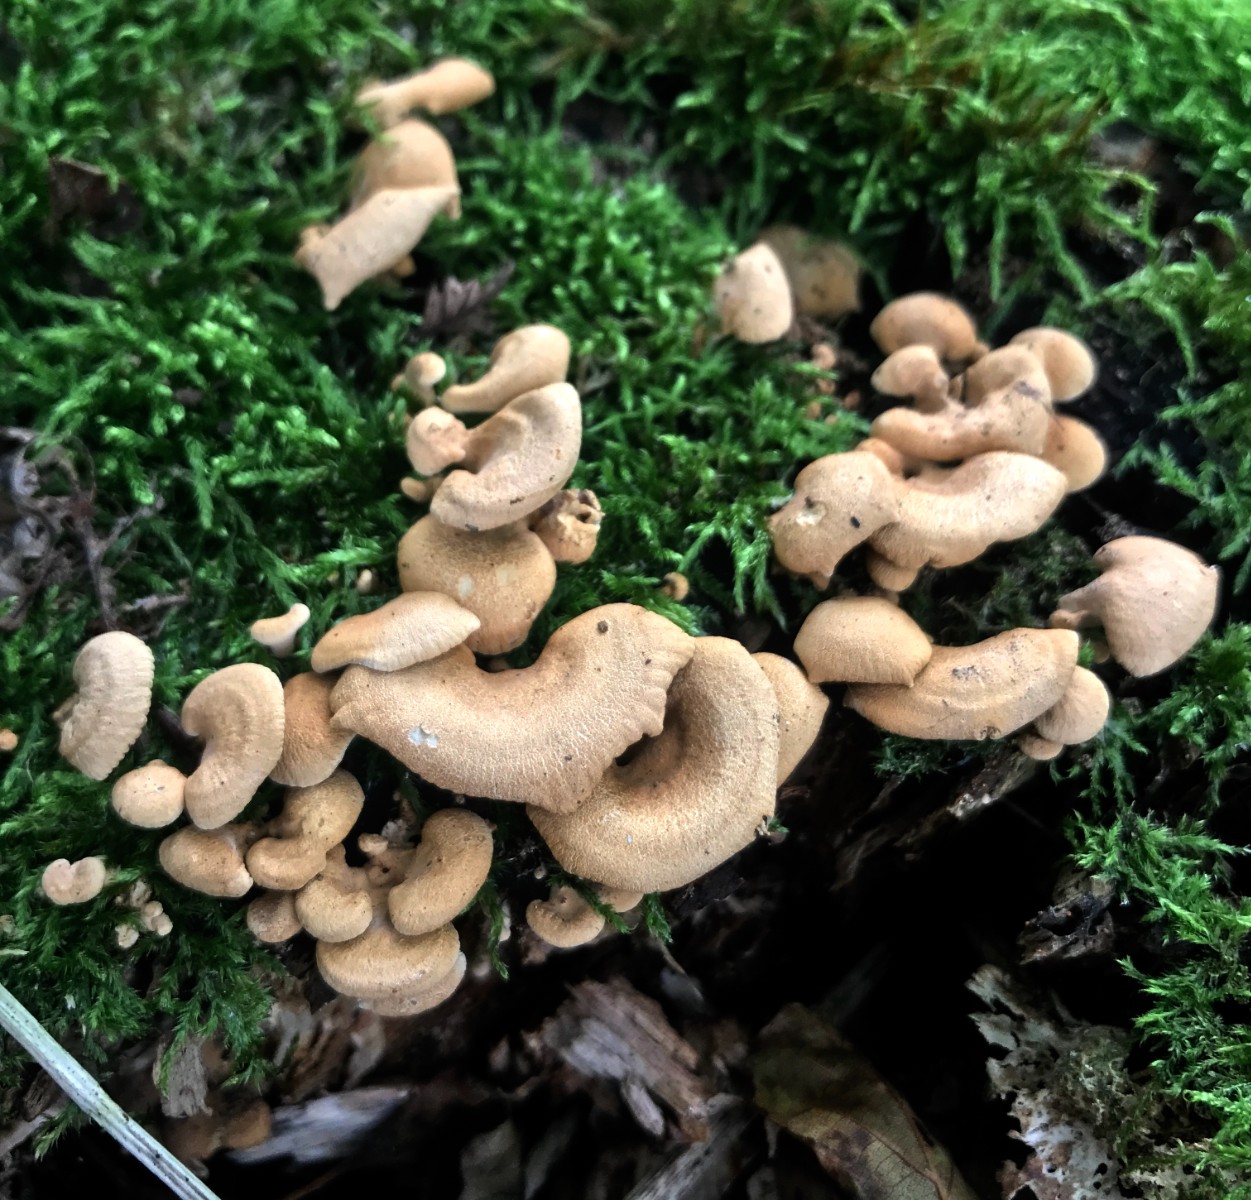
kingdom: Fungi
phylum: Basidiomycota
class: Agaricomycetes
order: Agaricales
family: Mycenaceae
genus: Panellus
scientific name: Panellus stipticus
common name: kliddet epaulethat
